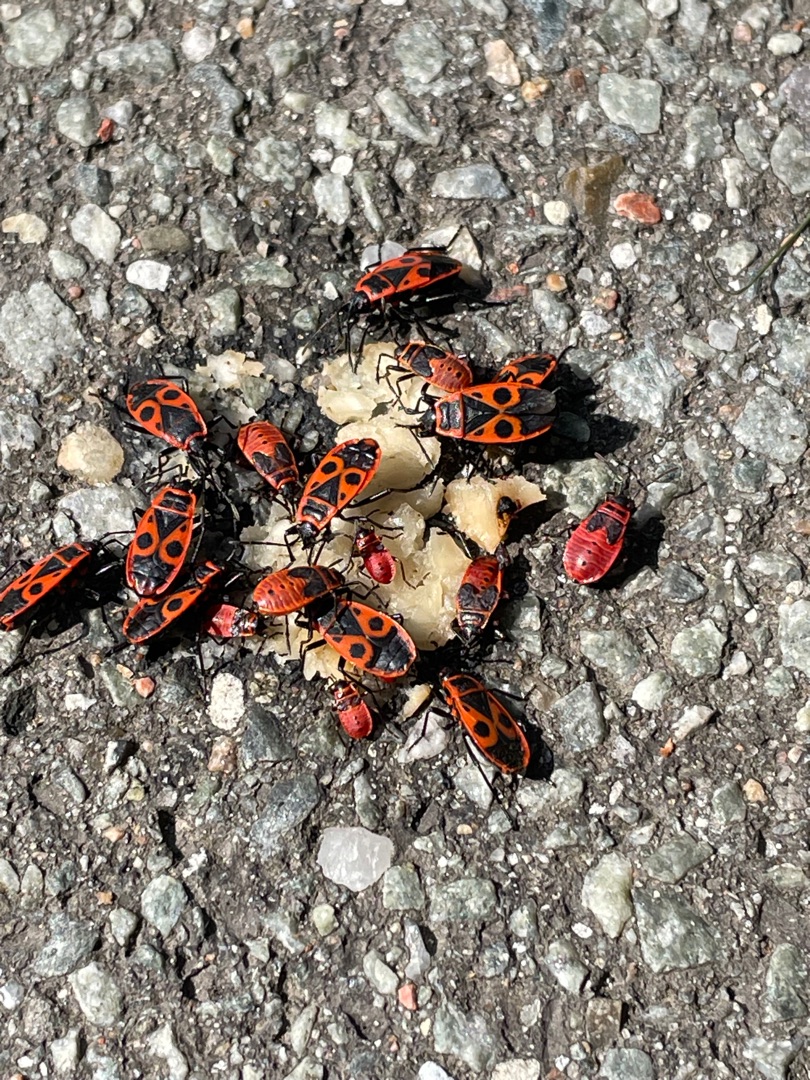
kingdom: Animalia
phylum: Arthropoda
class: Insecta
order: Hemiptera
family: Pyrrhocoridae
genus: Pyrrhocoris
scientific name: Pyrrhocoris apterus
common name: Ildtæge
